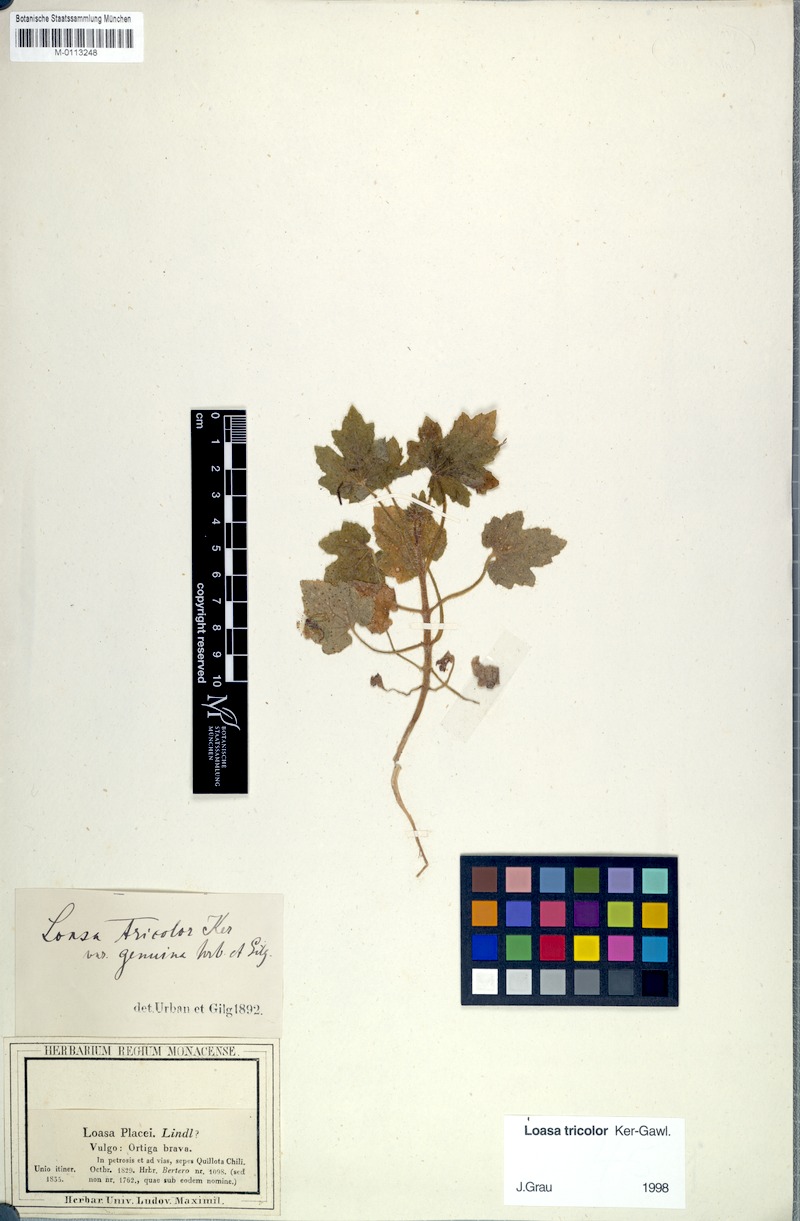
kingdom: Plantae
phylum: Tracheophyta
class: Magnoliopsida
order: Cornales
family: Loasaceae
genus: Loasa
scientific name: Loasa tricolor
